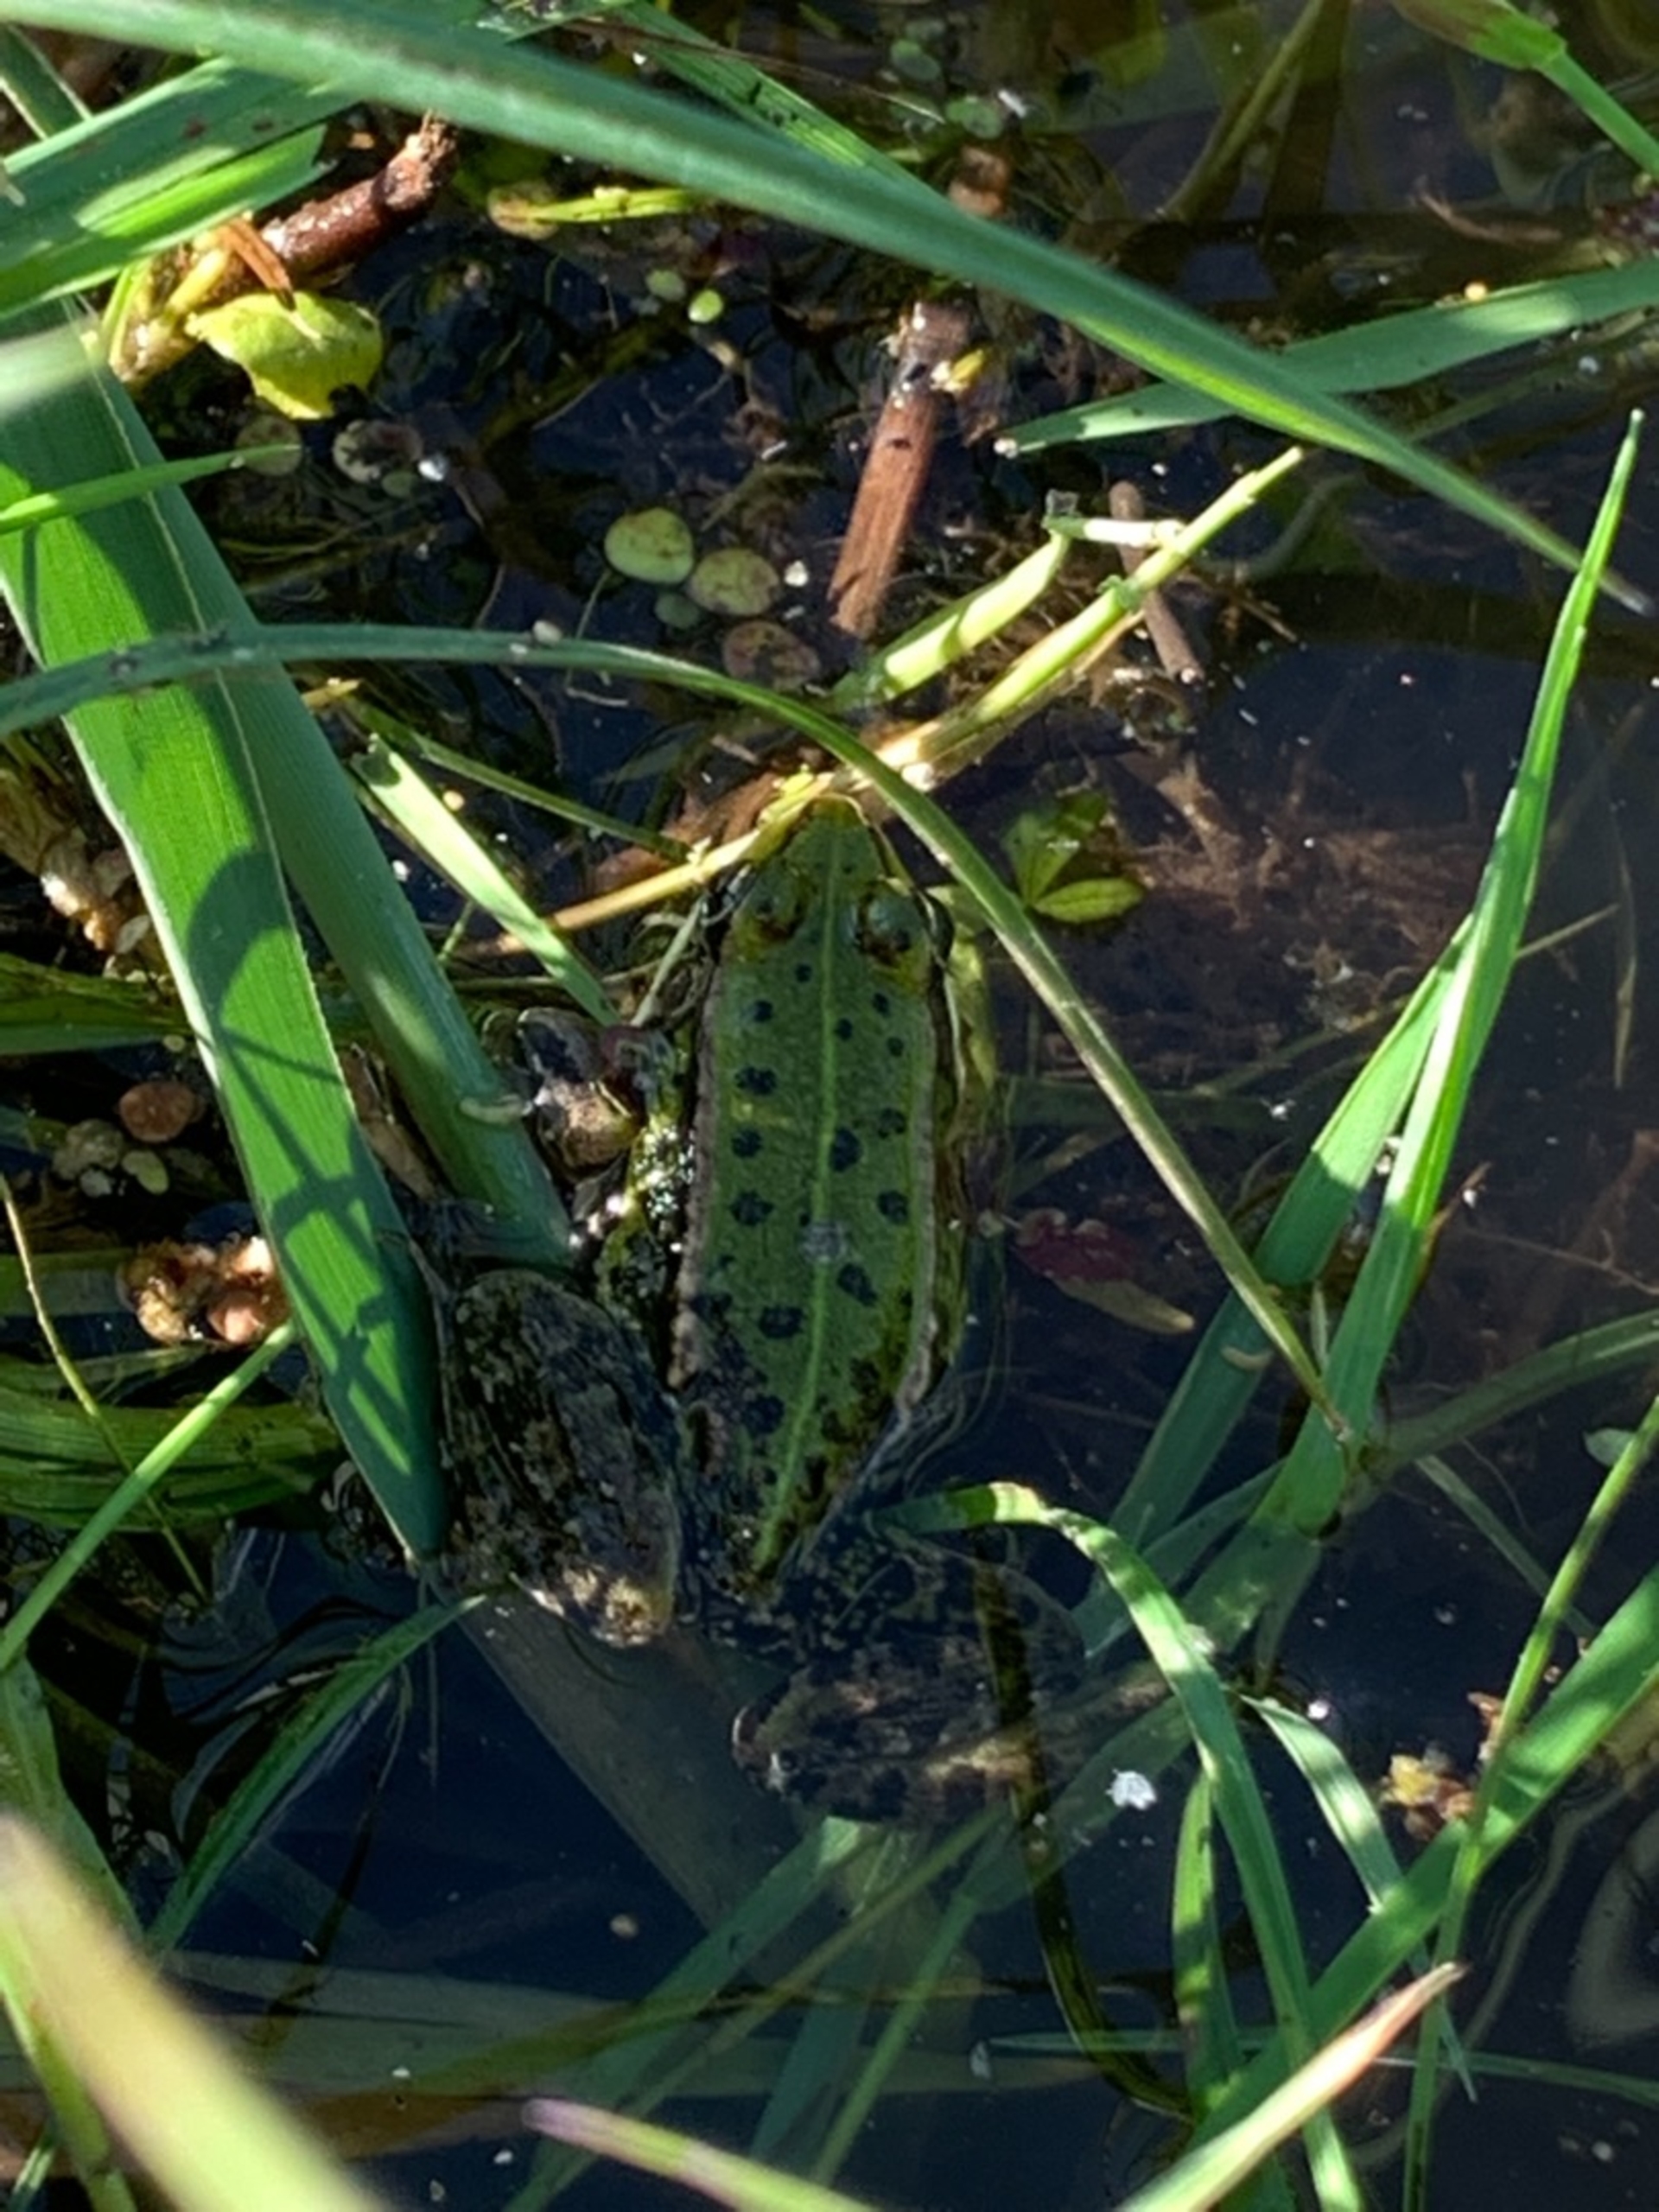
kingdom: Animalia
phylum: Chordata
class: Amphibia
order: Anura
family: Ranidae
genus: Pelophylax
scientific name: Pelophylax lessonae
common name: Grøn frø
